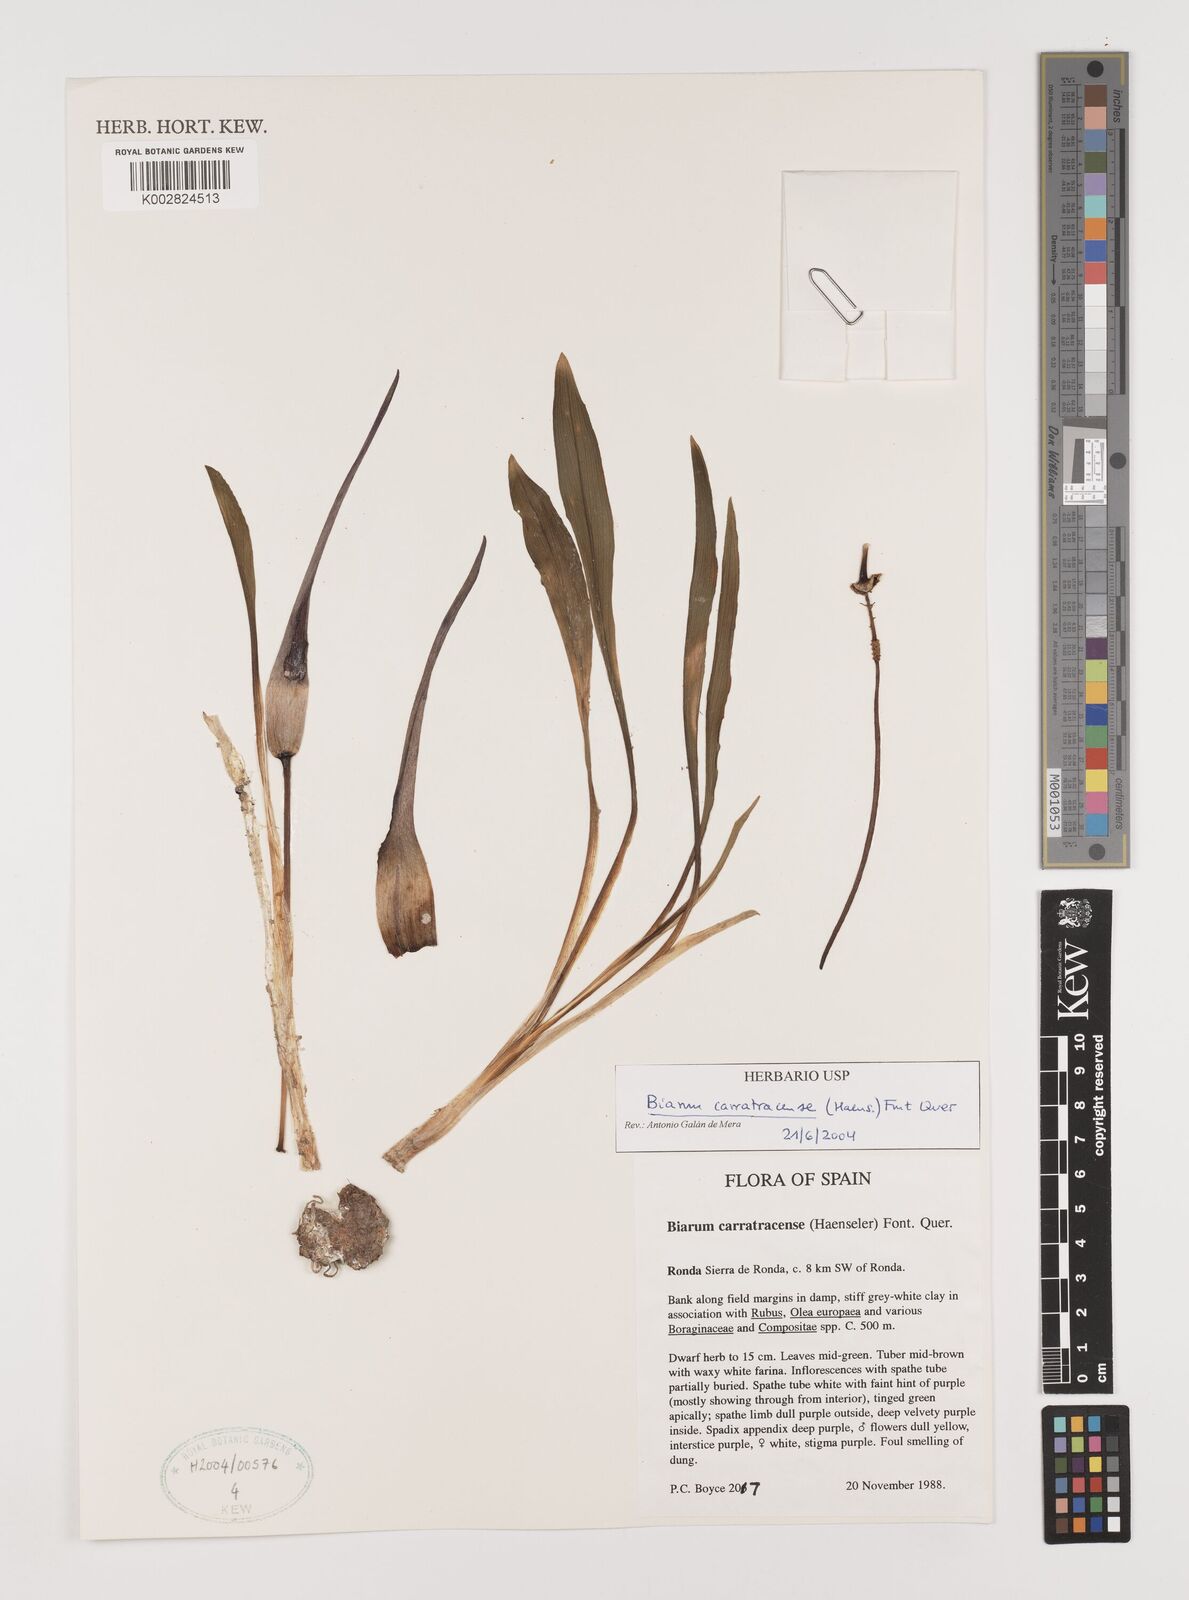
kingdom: Plantae
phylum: Tracheophyta
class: Liliopsida
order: Alismatales
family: Araceae
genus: Biarum
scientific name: Biarum carratracense
